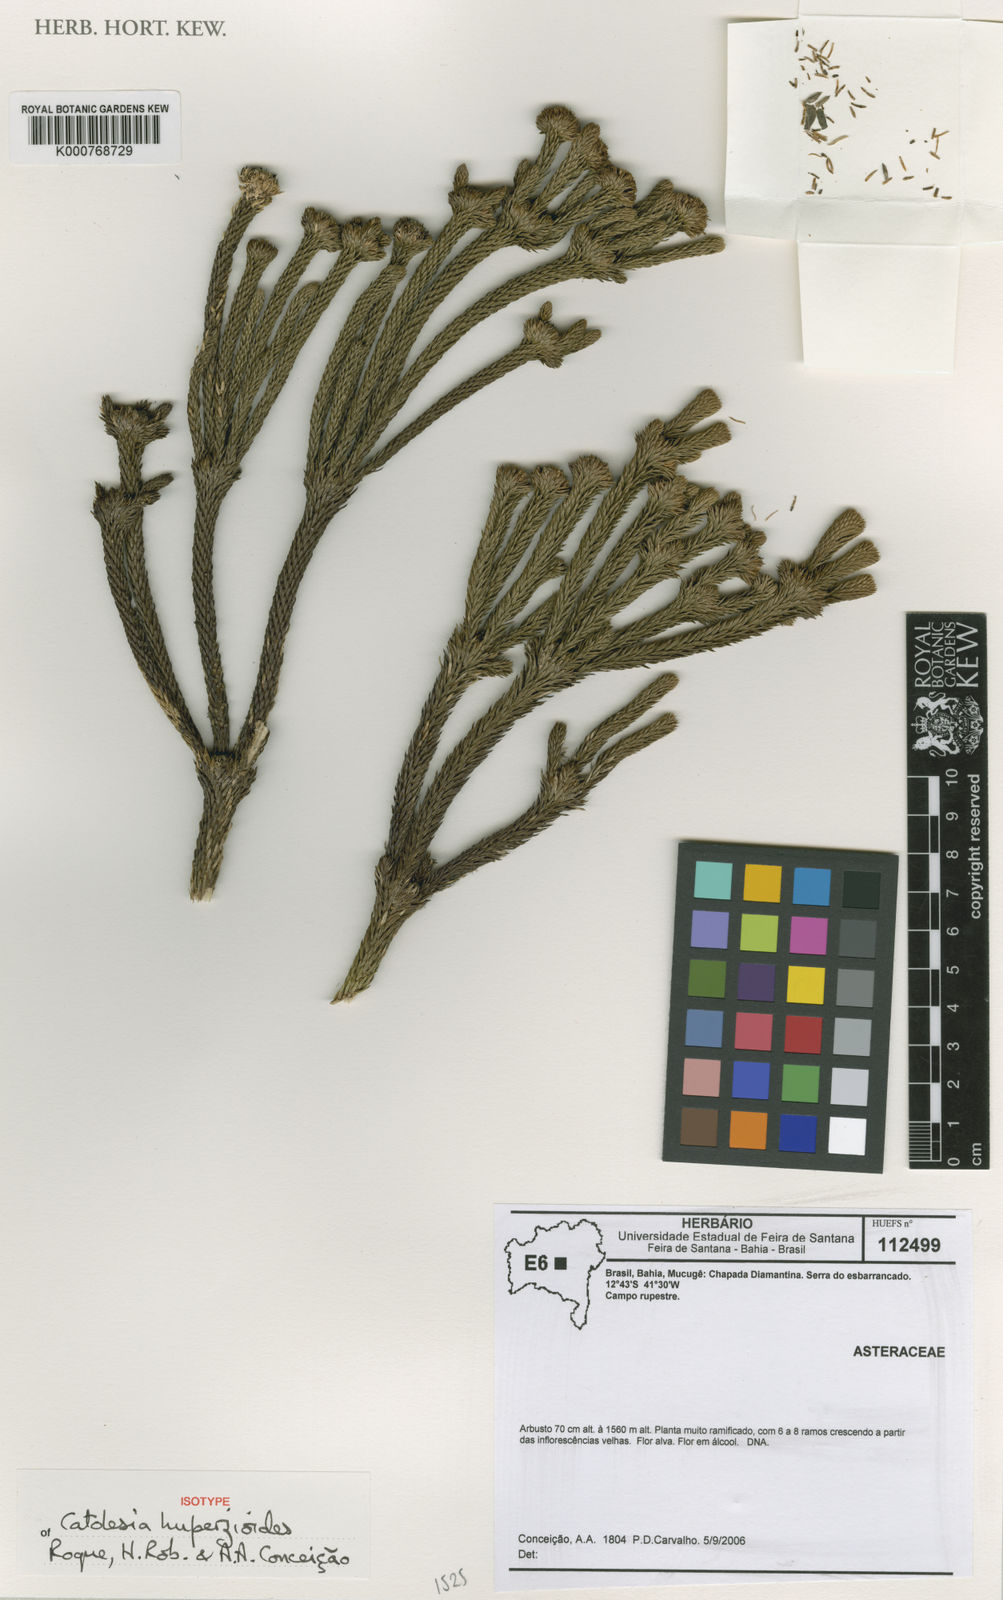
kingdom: Plantae
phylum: Tracheophyta
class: Magnoliopsida
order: Asterales
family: Asteraceae
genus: Catolesia
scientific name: Catolesia
